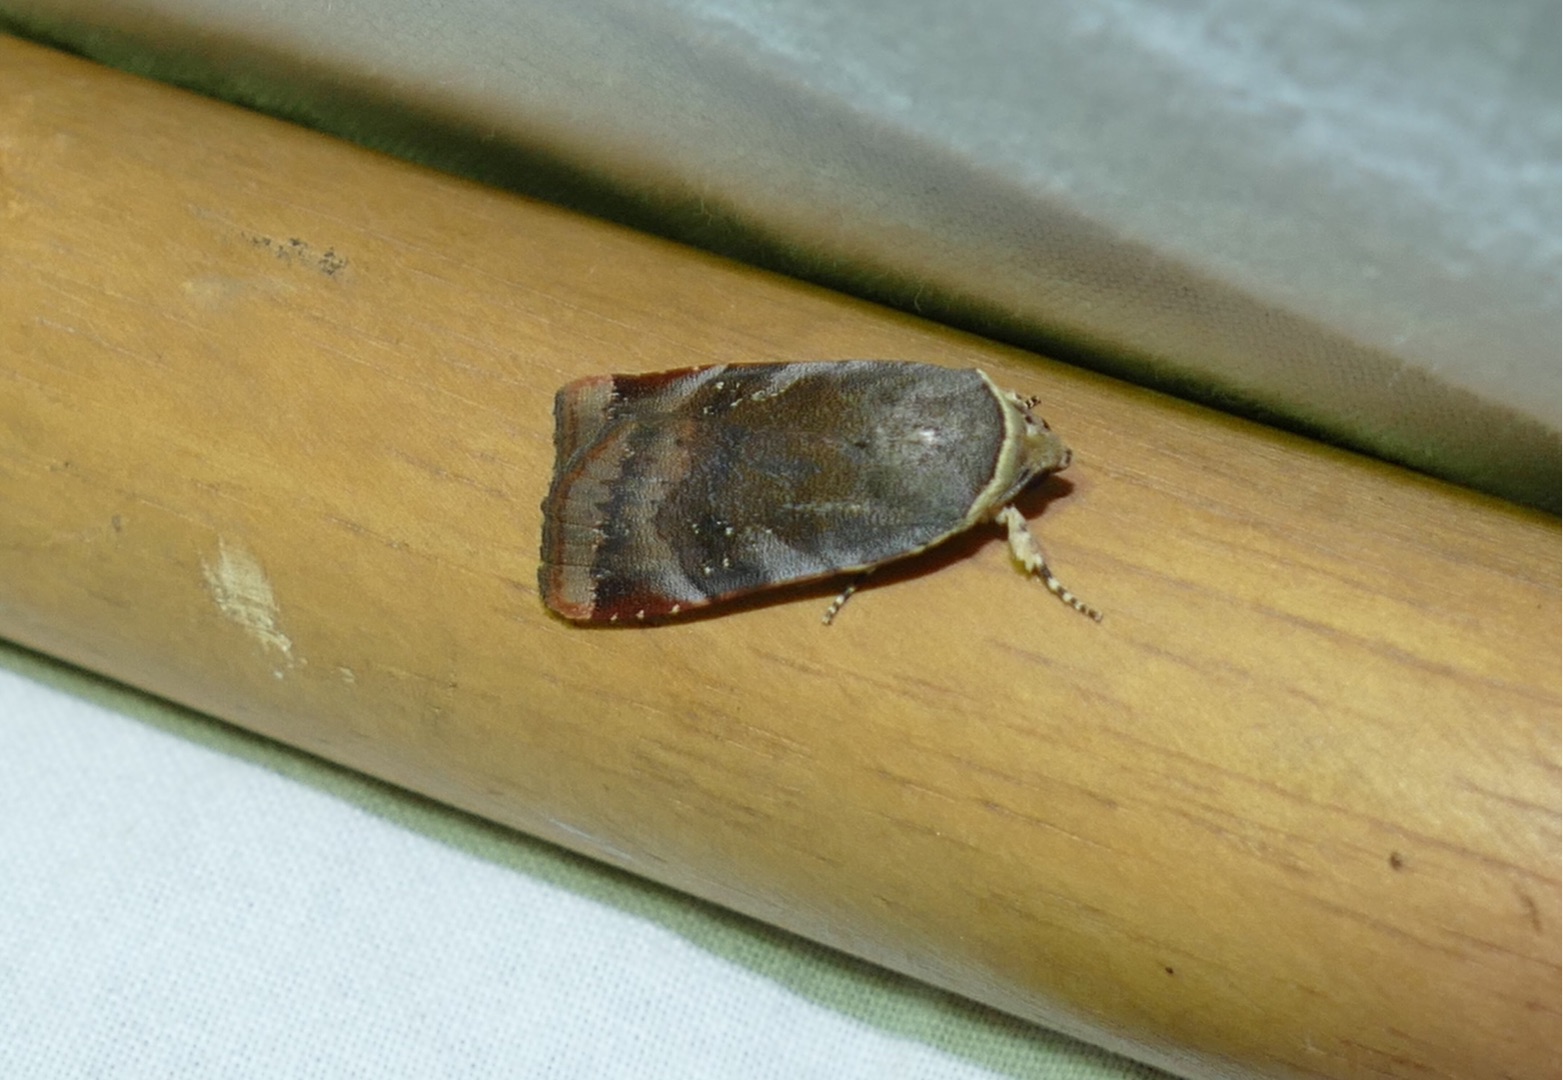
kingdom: Animalia
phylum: Arthropoda
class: Insecta
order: Lepidoptera
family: Noctuidae
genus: Noctua
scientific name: Noctua janthe
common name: Brunviolet smutugle
